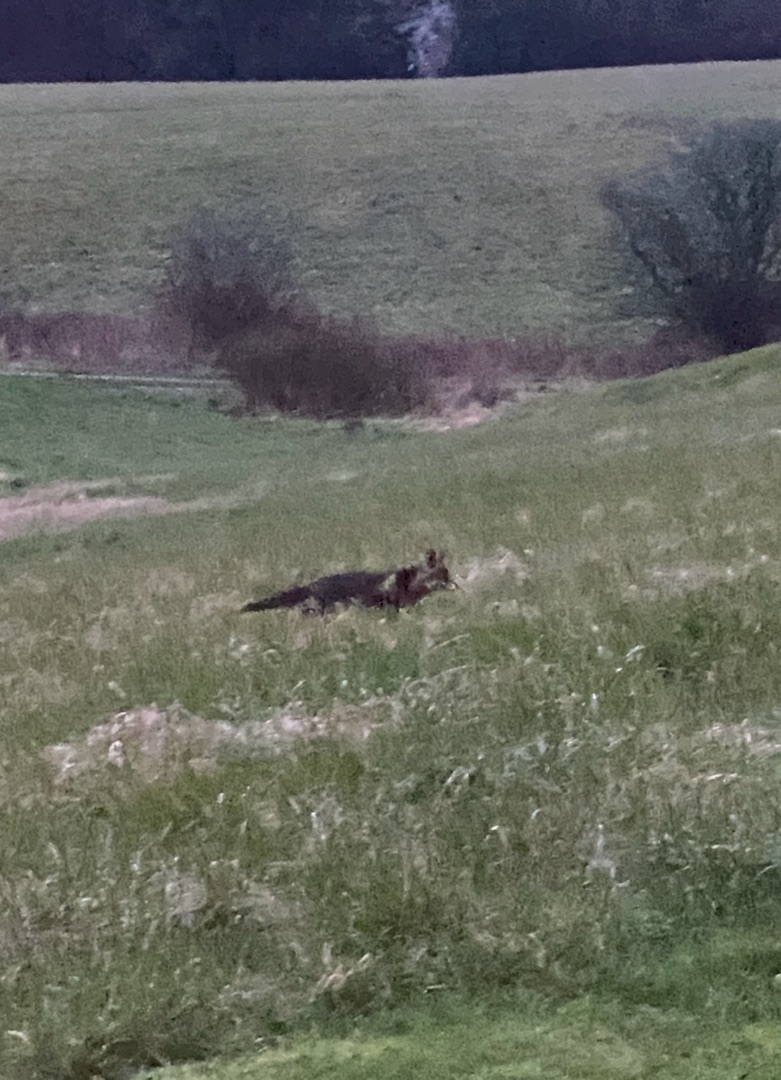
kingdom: Animalia
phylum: Chordata
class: Mammalia
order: Carnivora
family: Canidae
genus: Vulpes
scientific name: Vulpes vulpes
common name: Ræv
